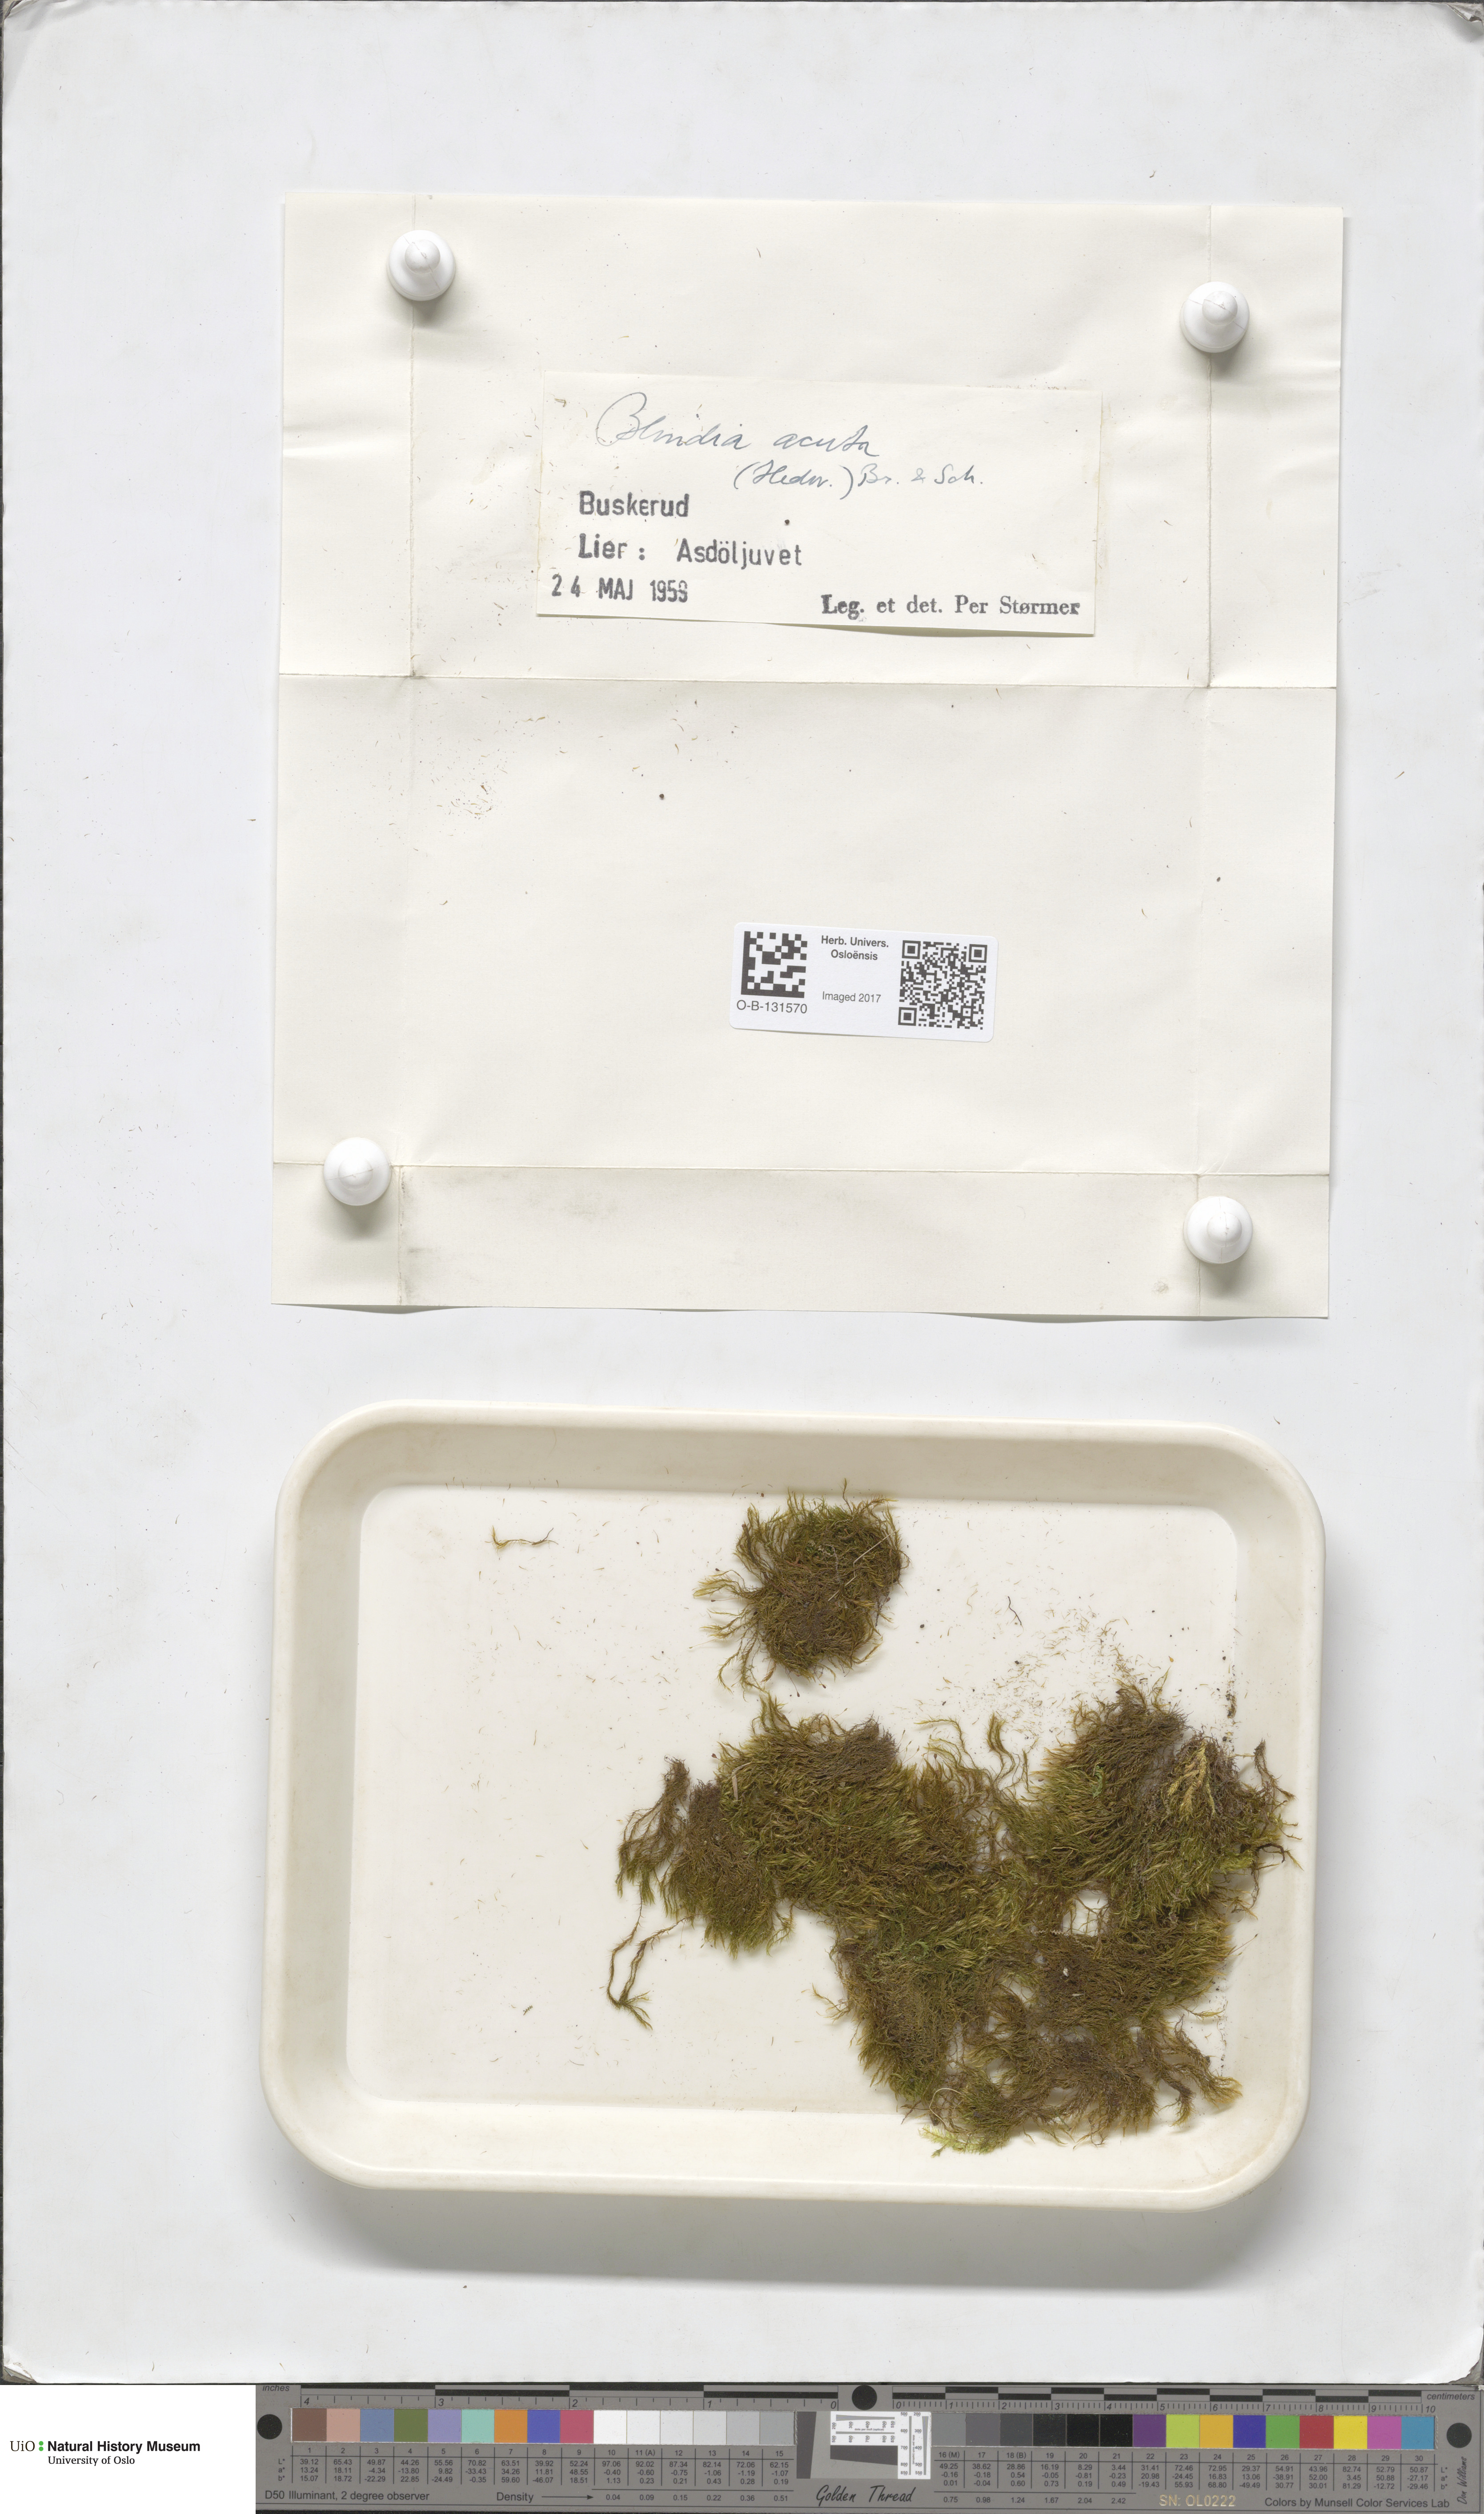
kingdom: Plantae
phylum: Bryophyta
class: Bryopsida
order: Grimmiales
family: Seligeriaceae
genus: Blindia
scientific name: Blindia acuta
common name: Sharp-leaved blind's moss
